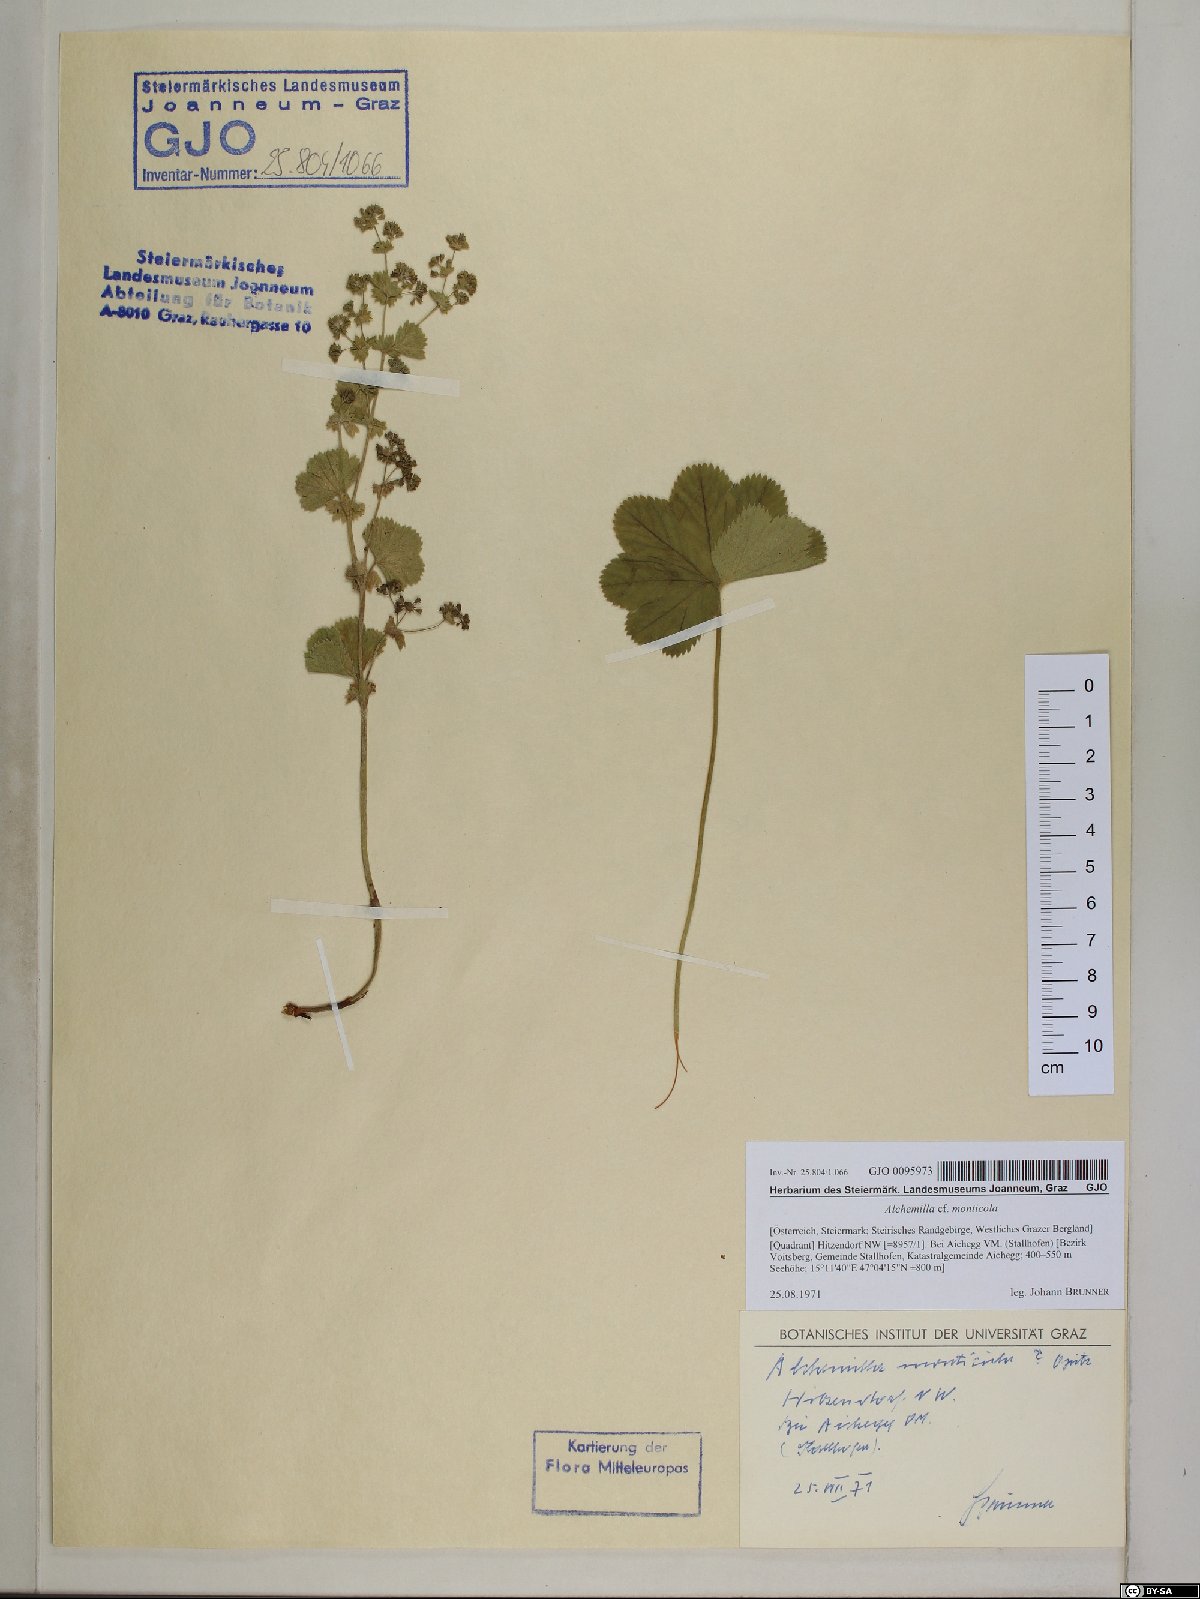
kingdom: Plantae
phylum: Tracheophyta
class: Magnoliopsida
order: Rosales
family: Rosaceae
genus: Alchemilla
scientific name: Alchemilla monticola
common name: Hairy lady's mantle
